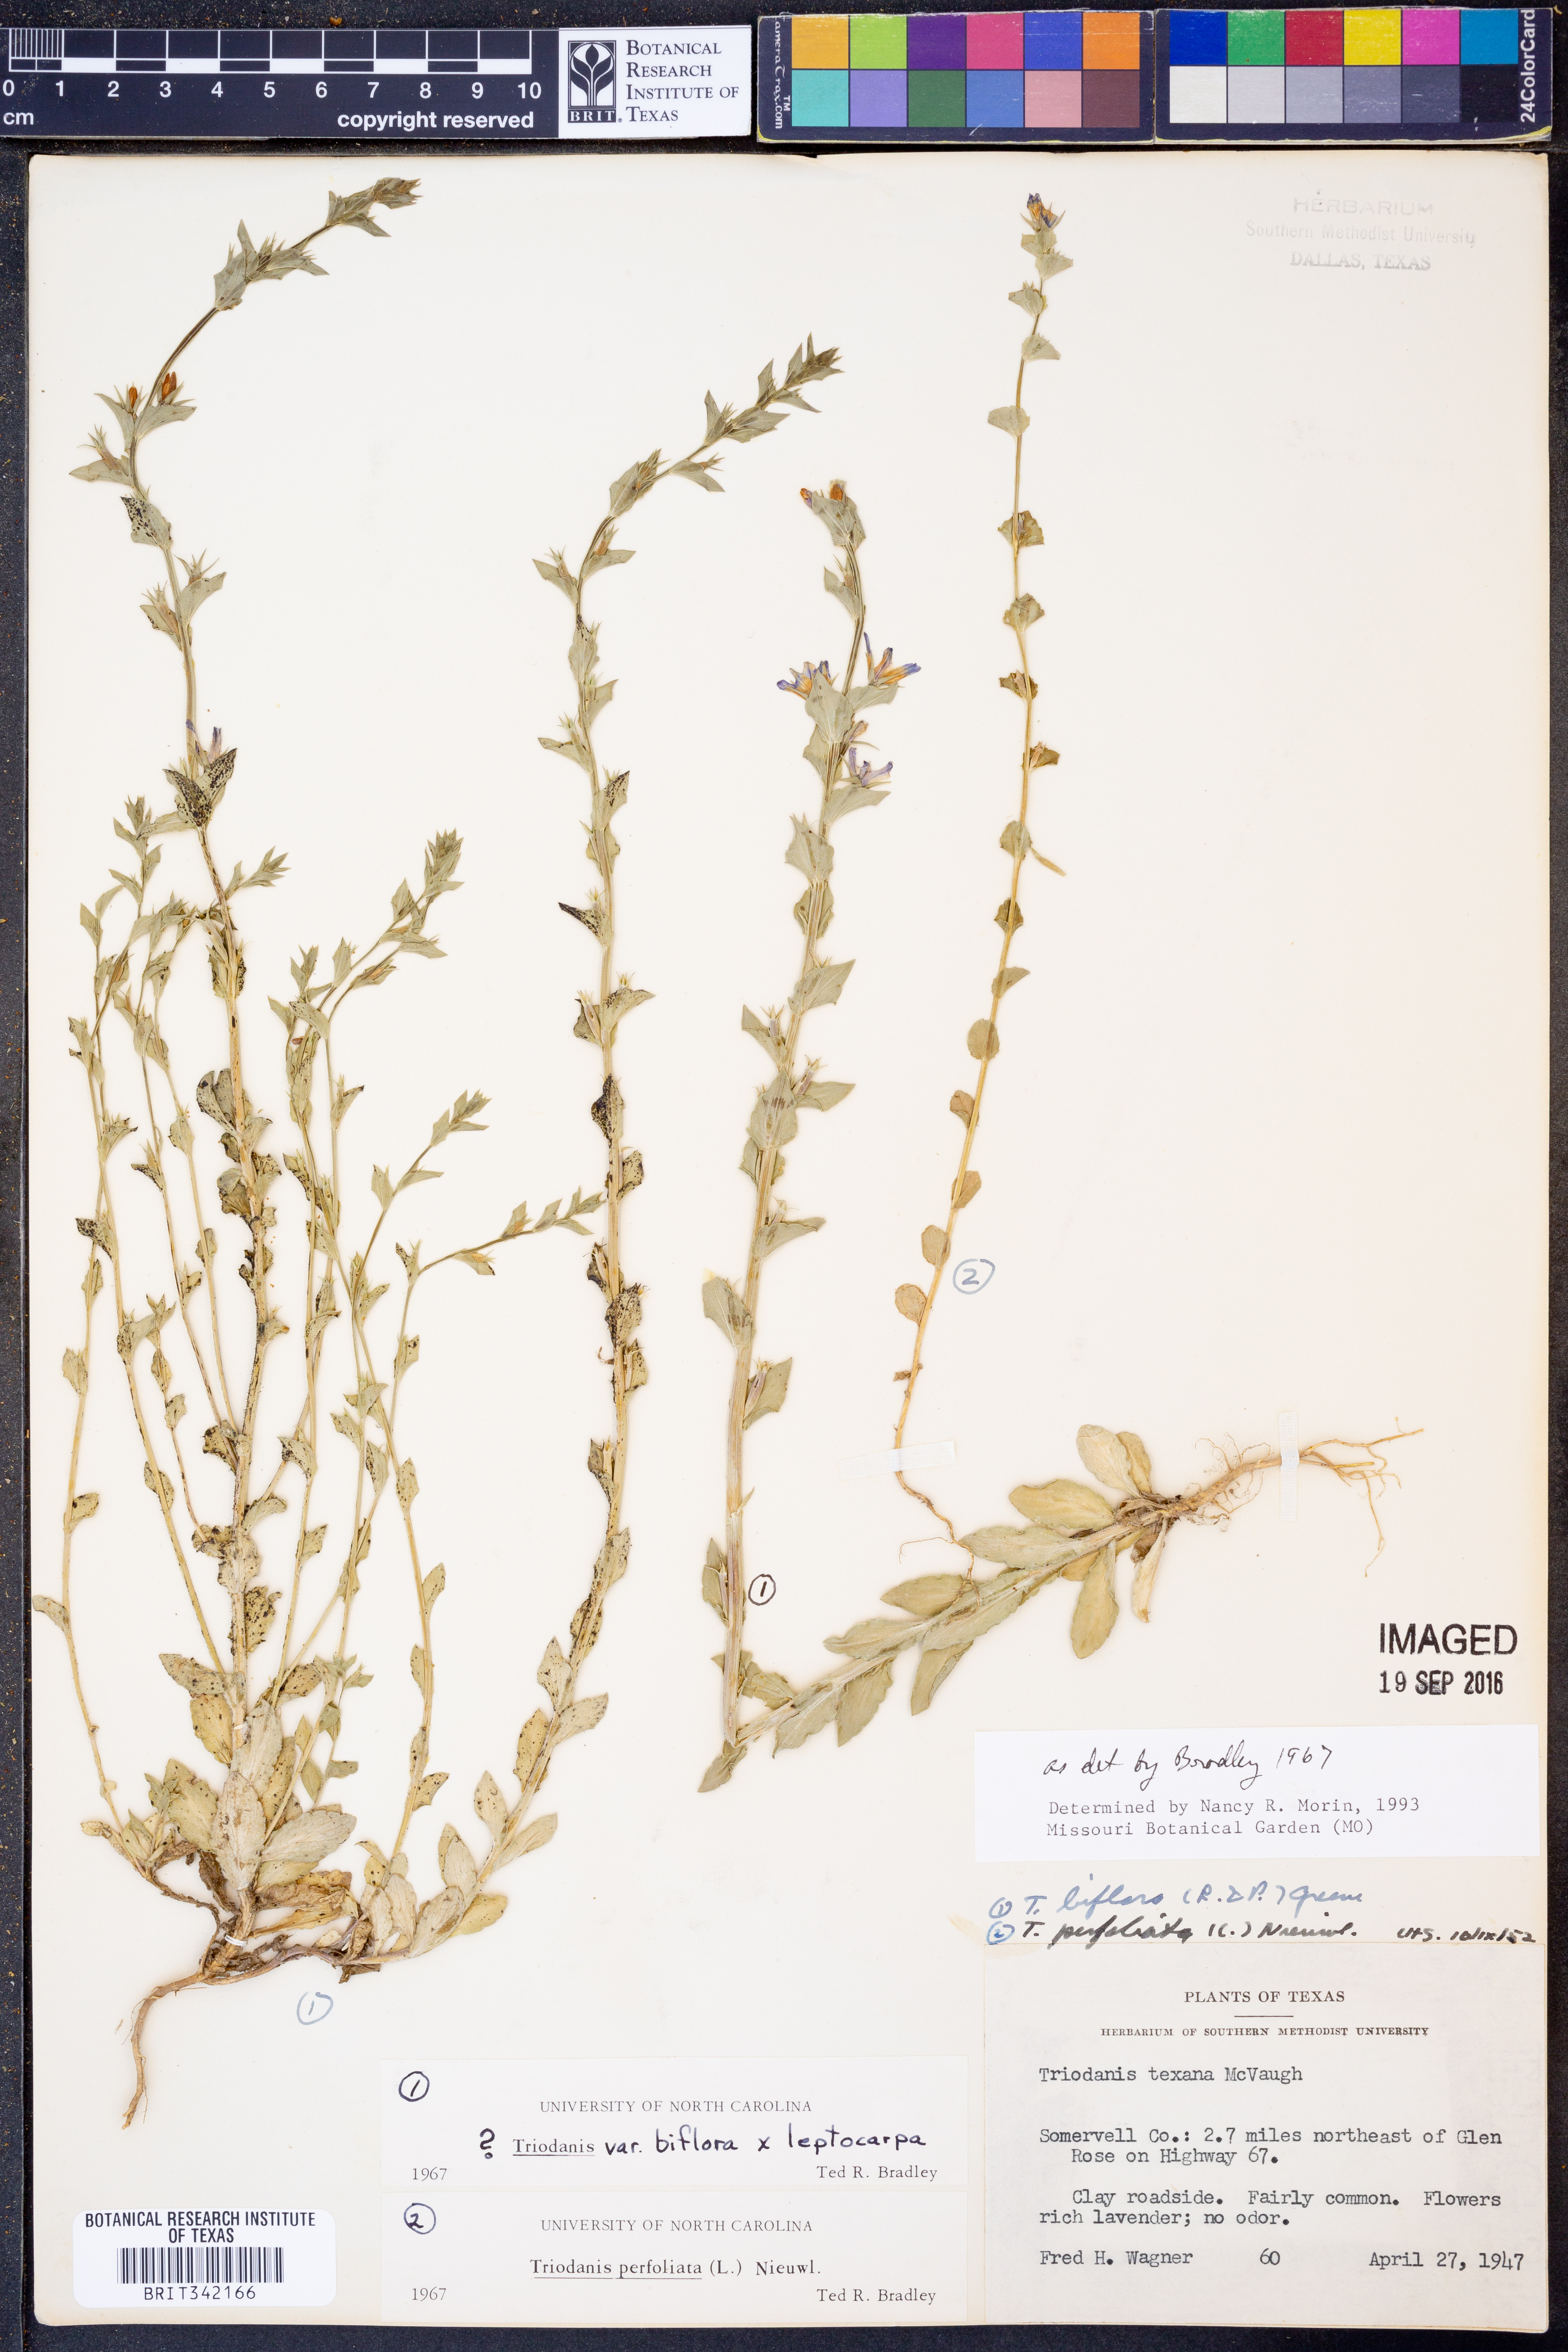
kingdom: Plantae
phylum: Tracheophyta
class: Magnoliopsida
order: Asterales
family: Campanulaceae
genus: Triodanis
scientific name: Triodanis perfoliata
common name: Clasping venus' looking-glass
